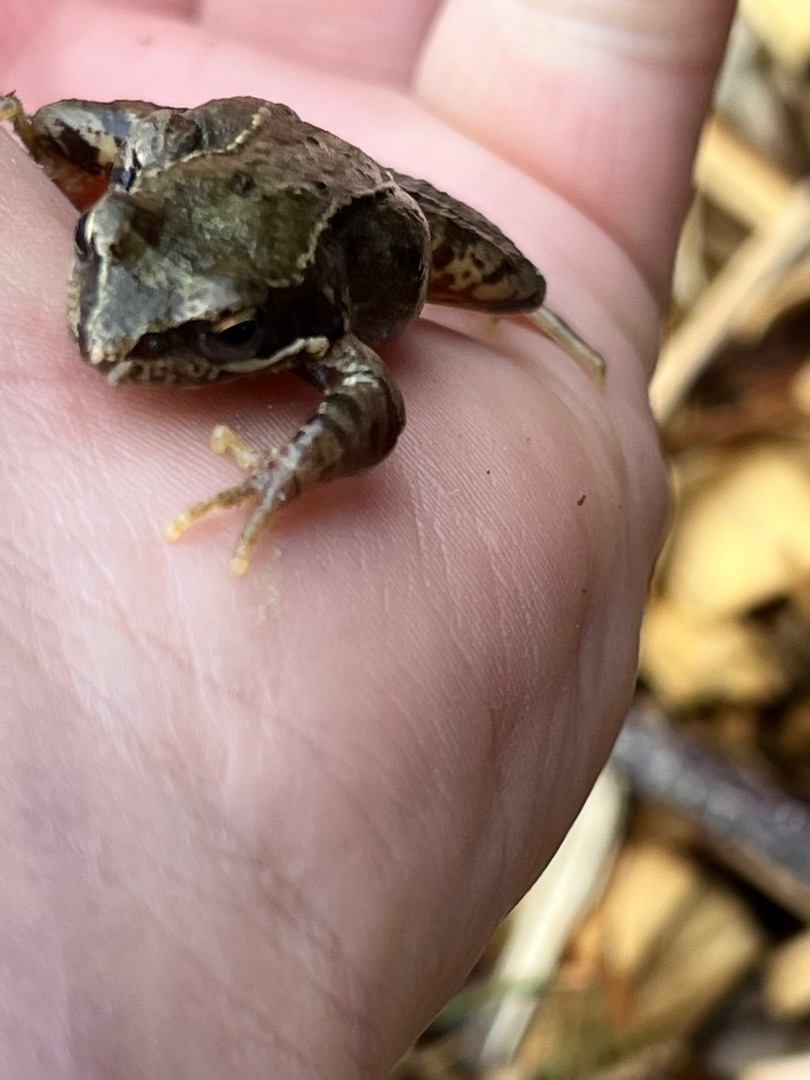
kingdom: Animalia
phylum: Chordata
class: Amphibia
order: Anura
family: Ranidae
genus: Rana
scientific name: Rana temporaria
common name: Butsnudet frø
